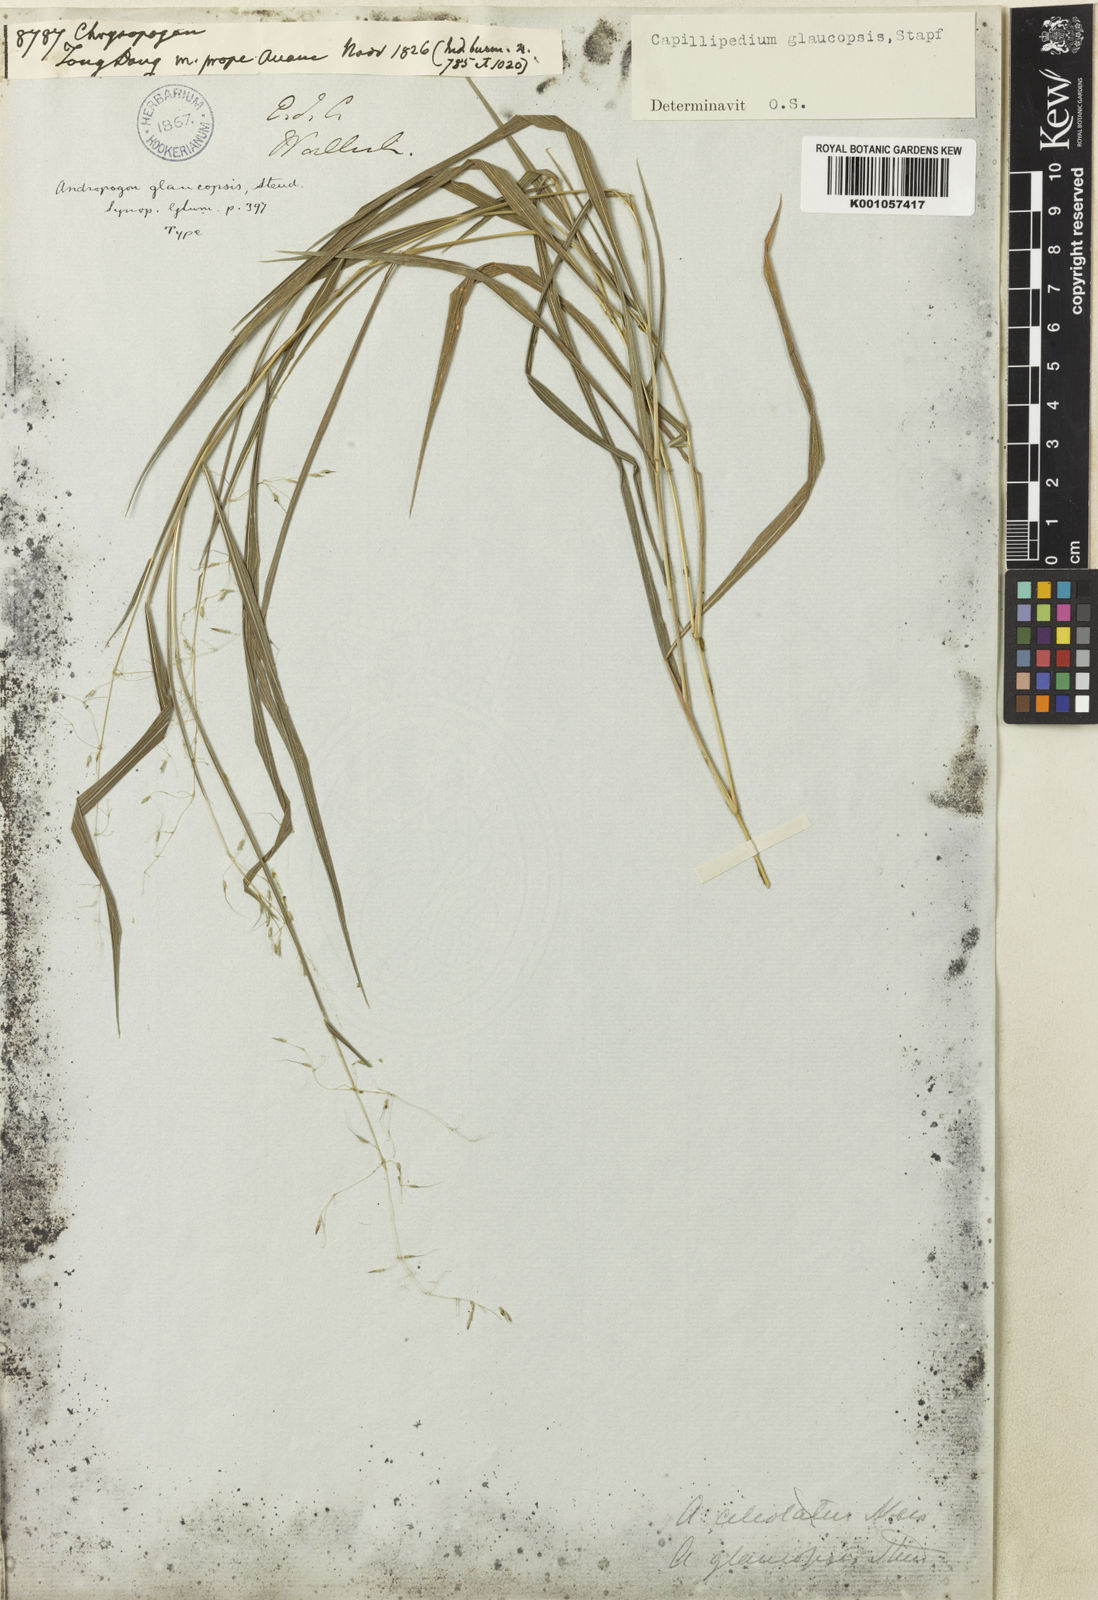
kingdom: Plantae
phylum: Tracheophyta
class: Liliopsida
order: Poales
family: Poaceae
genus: Capillipedium
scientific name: Capillipedium assimile
